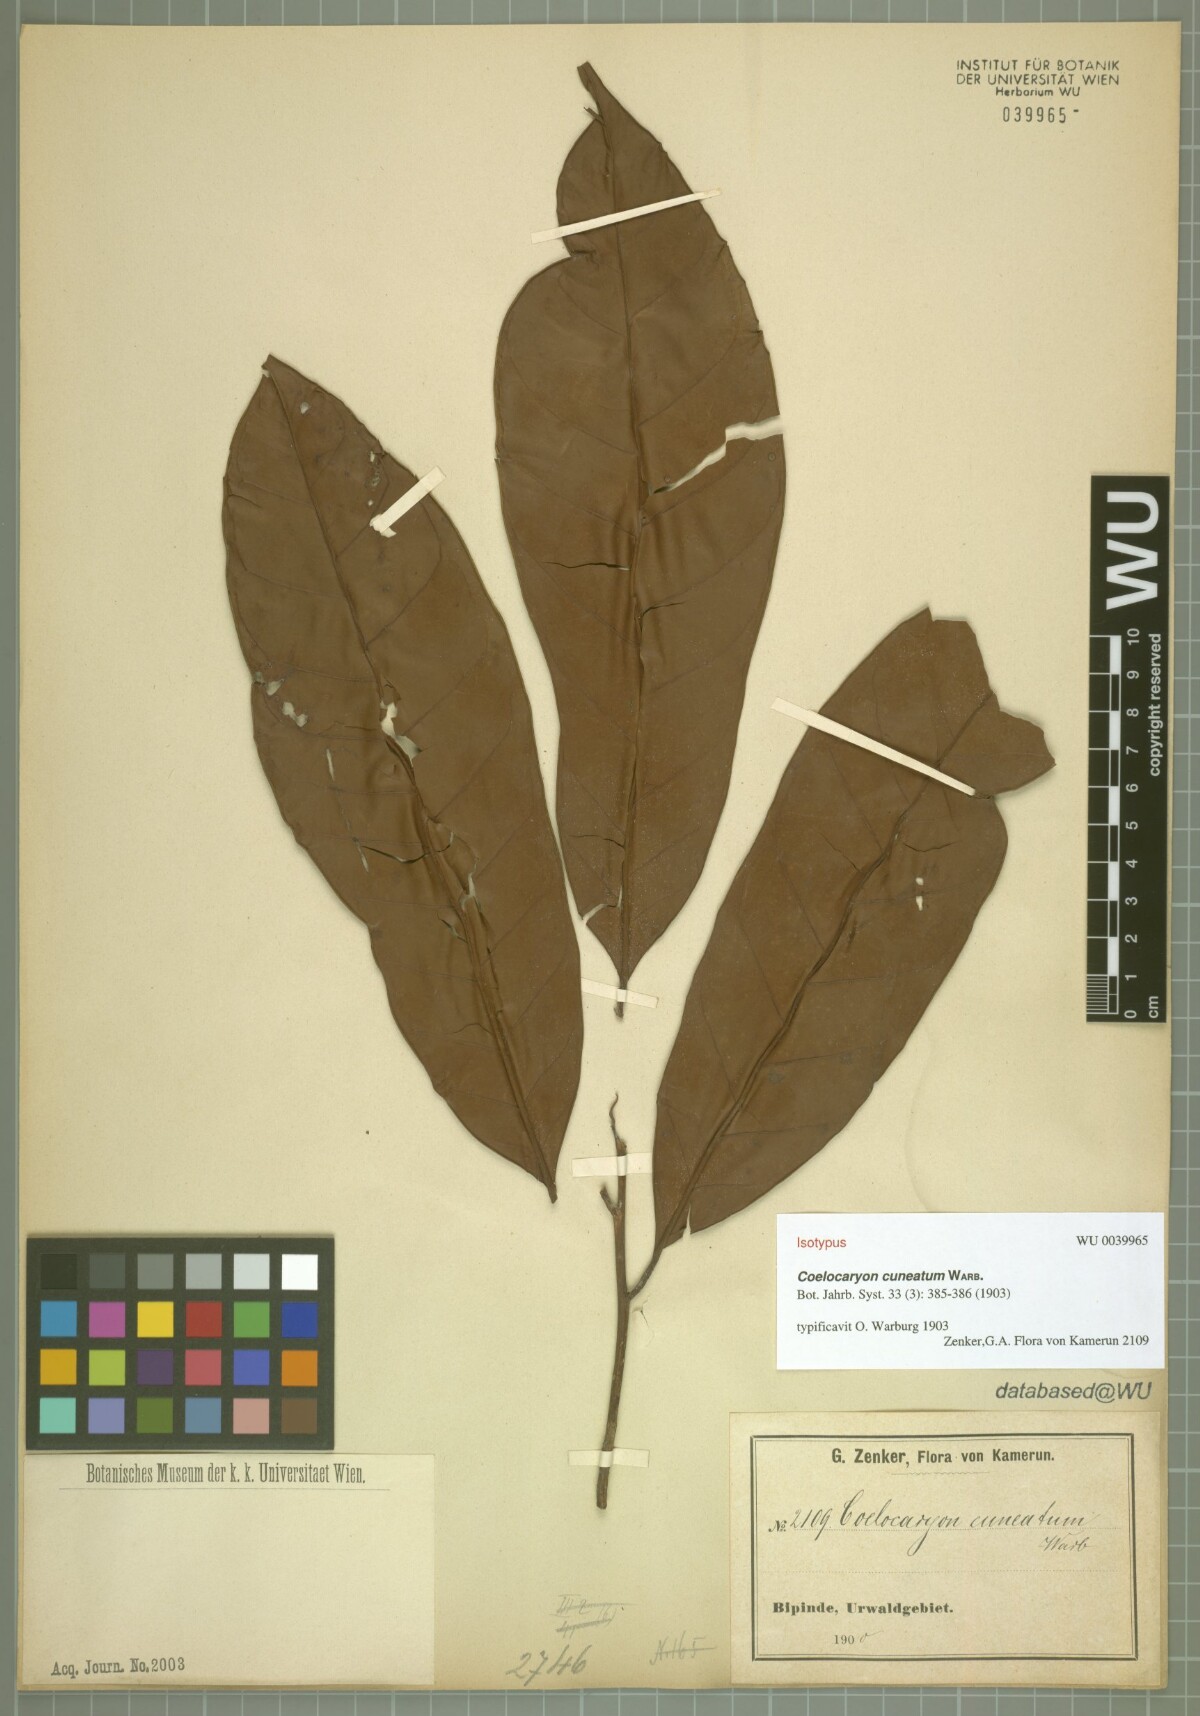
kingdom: Plantae
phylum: Tracheophyta
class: Magnoliopsida
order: Magnoliales
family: Myristicaceae
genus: Coelocaryon
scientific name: Coelocaryon preussii
